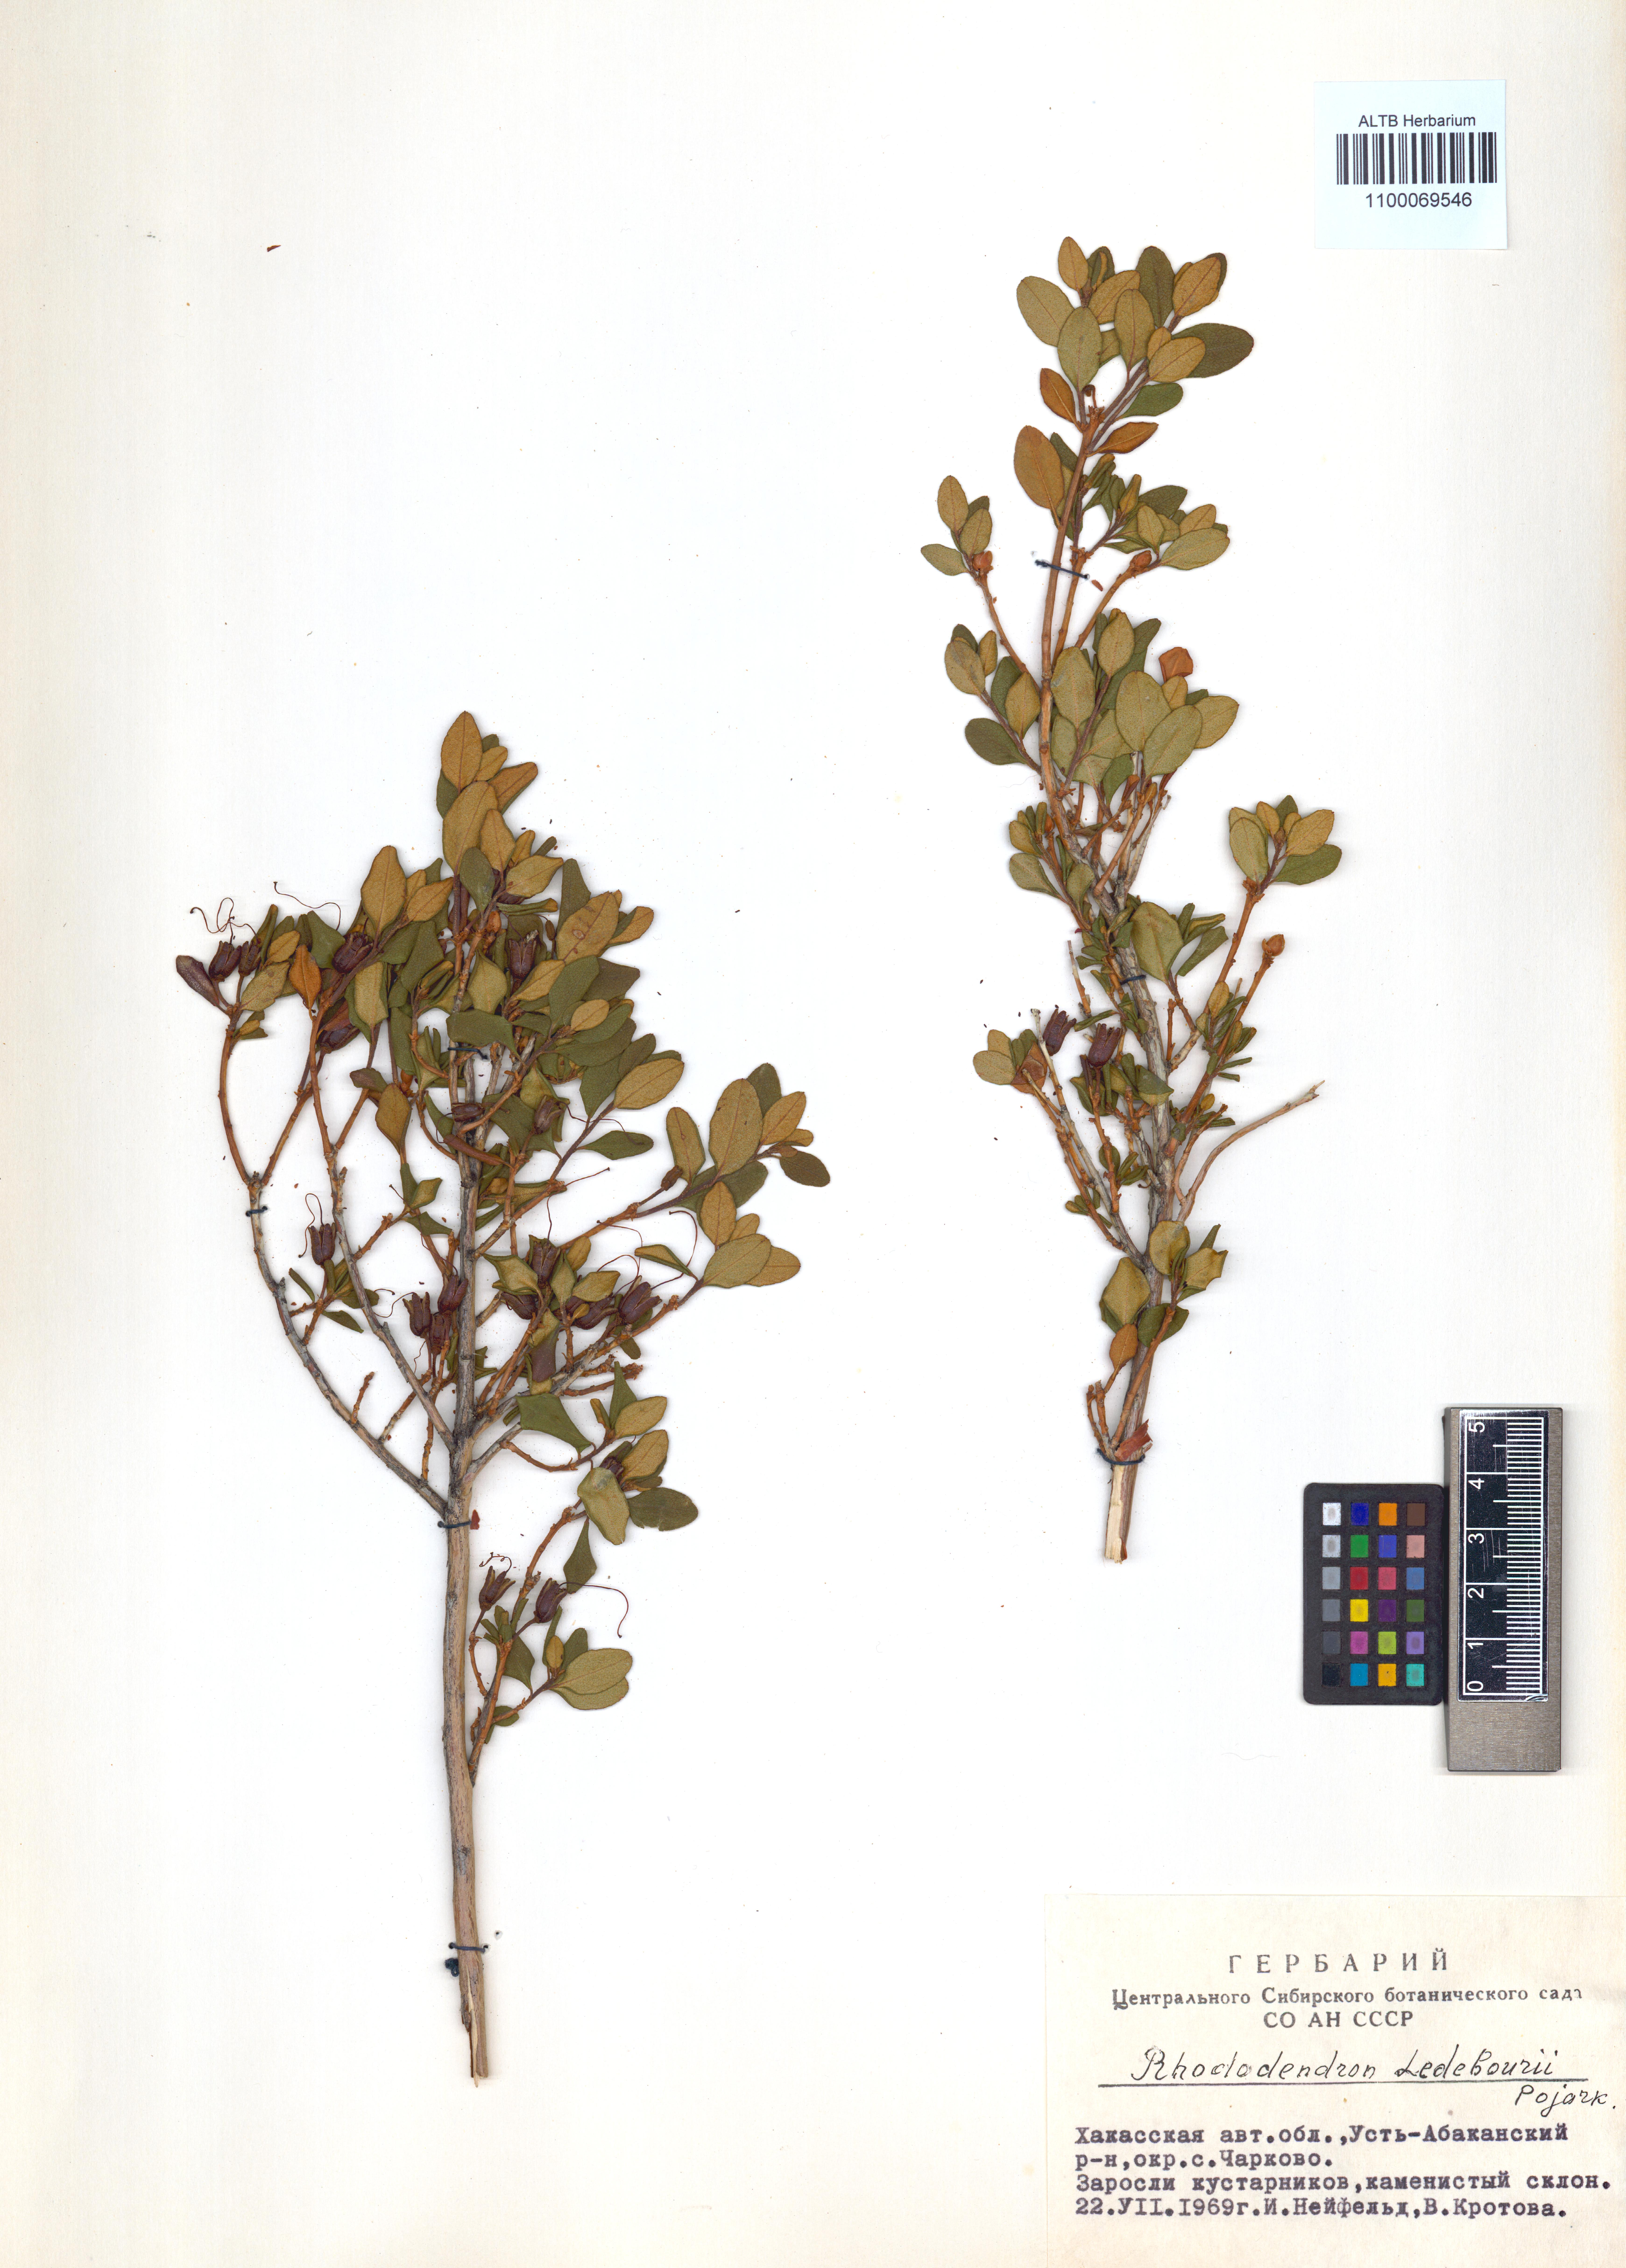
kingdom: Plantae
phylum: Tracheophyta
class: Magnoliopsida
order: Ericales
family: Ericaceae
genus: Rhododendron
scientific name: Rhododendron dauricum
